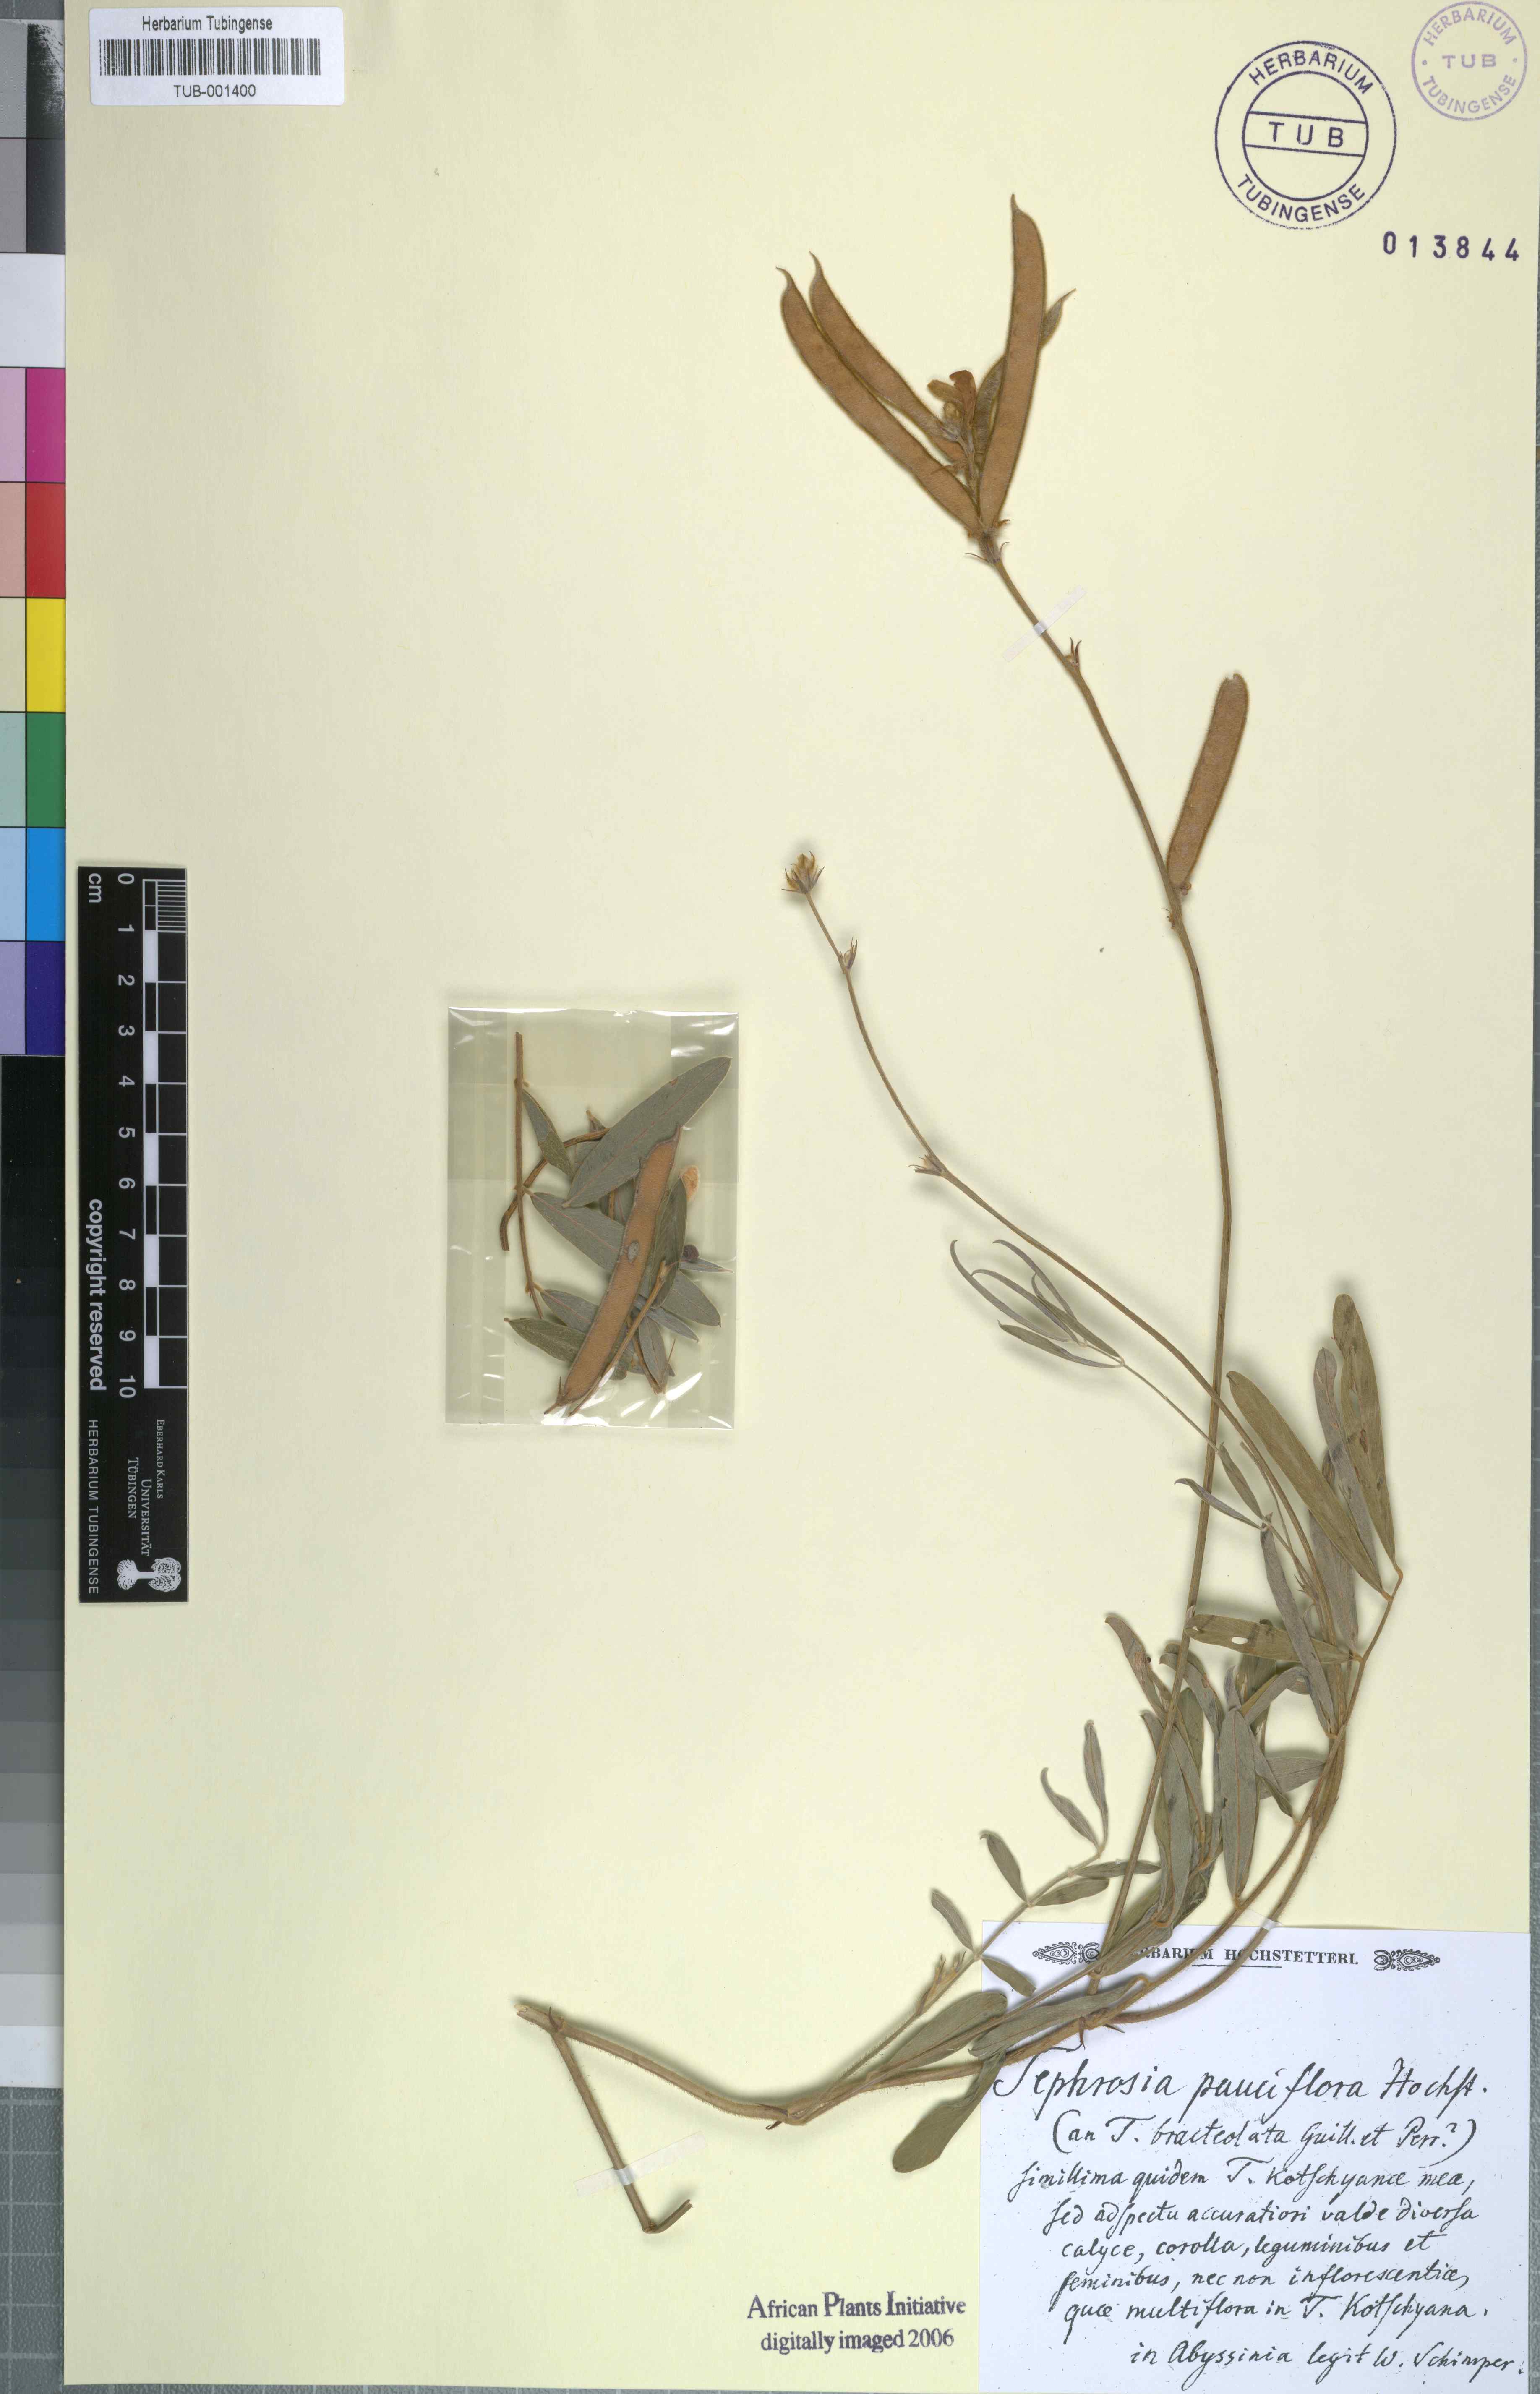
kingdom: Plantae
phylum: Tracheophyta
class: Magnoliopsida
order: Fabales
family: Fabaceae
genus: Tephrosia
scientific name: Tephrosia subtriflora
